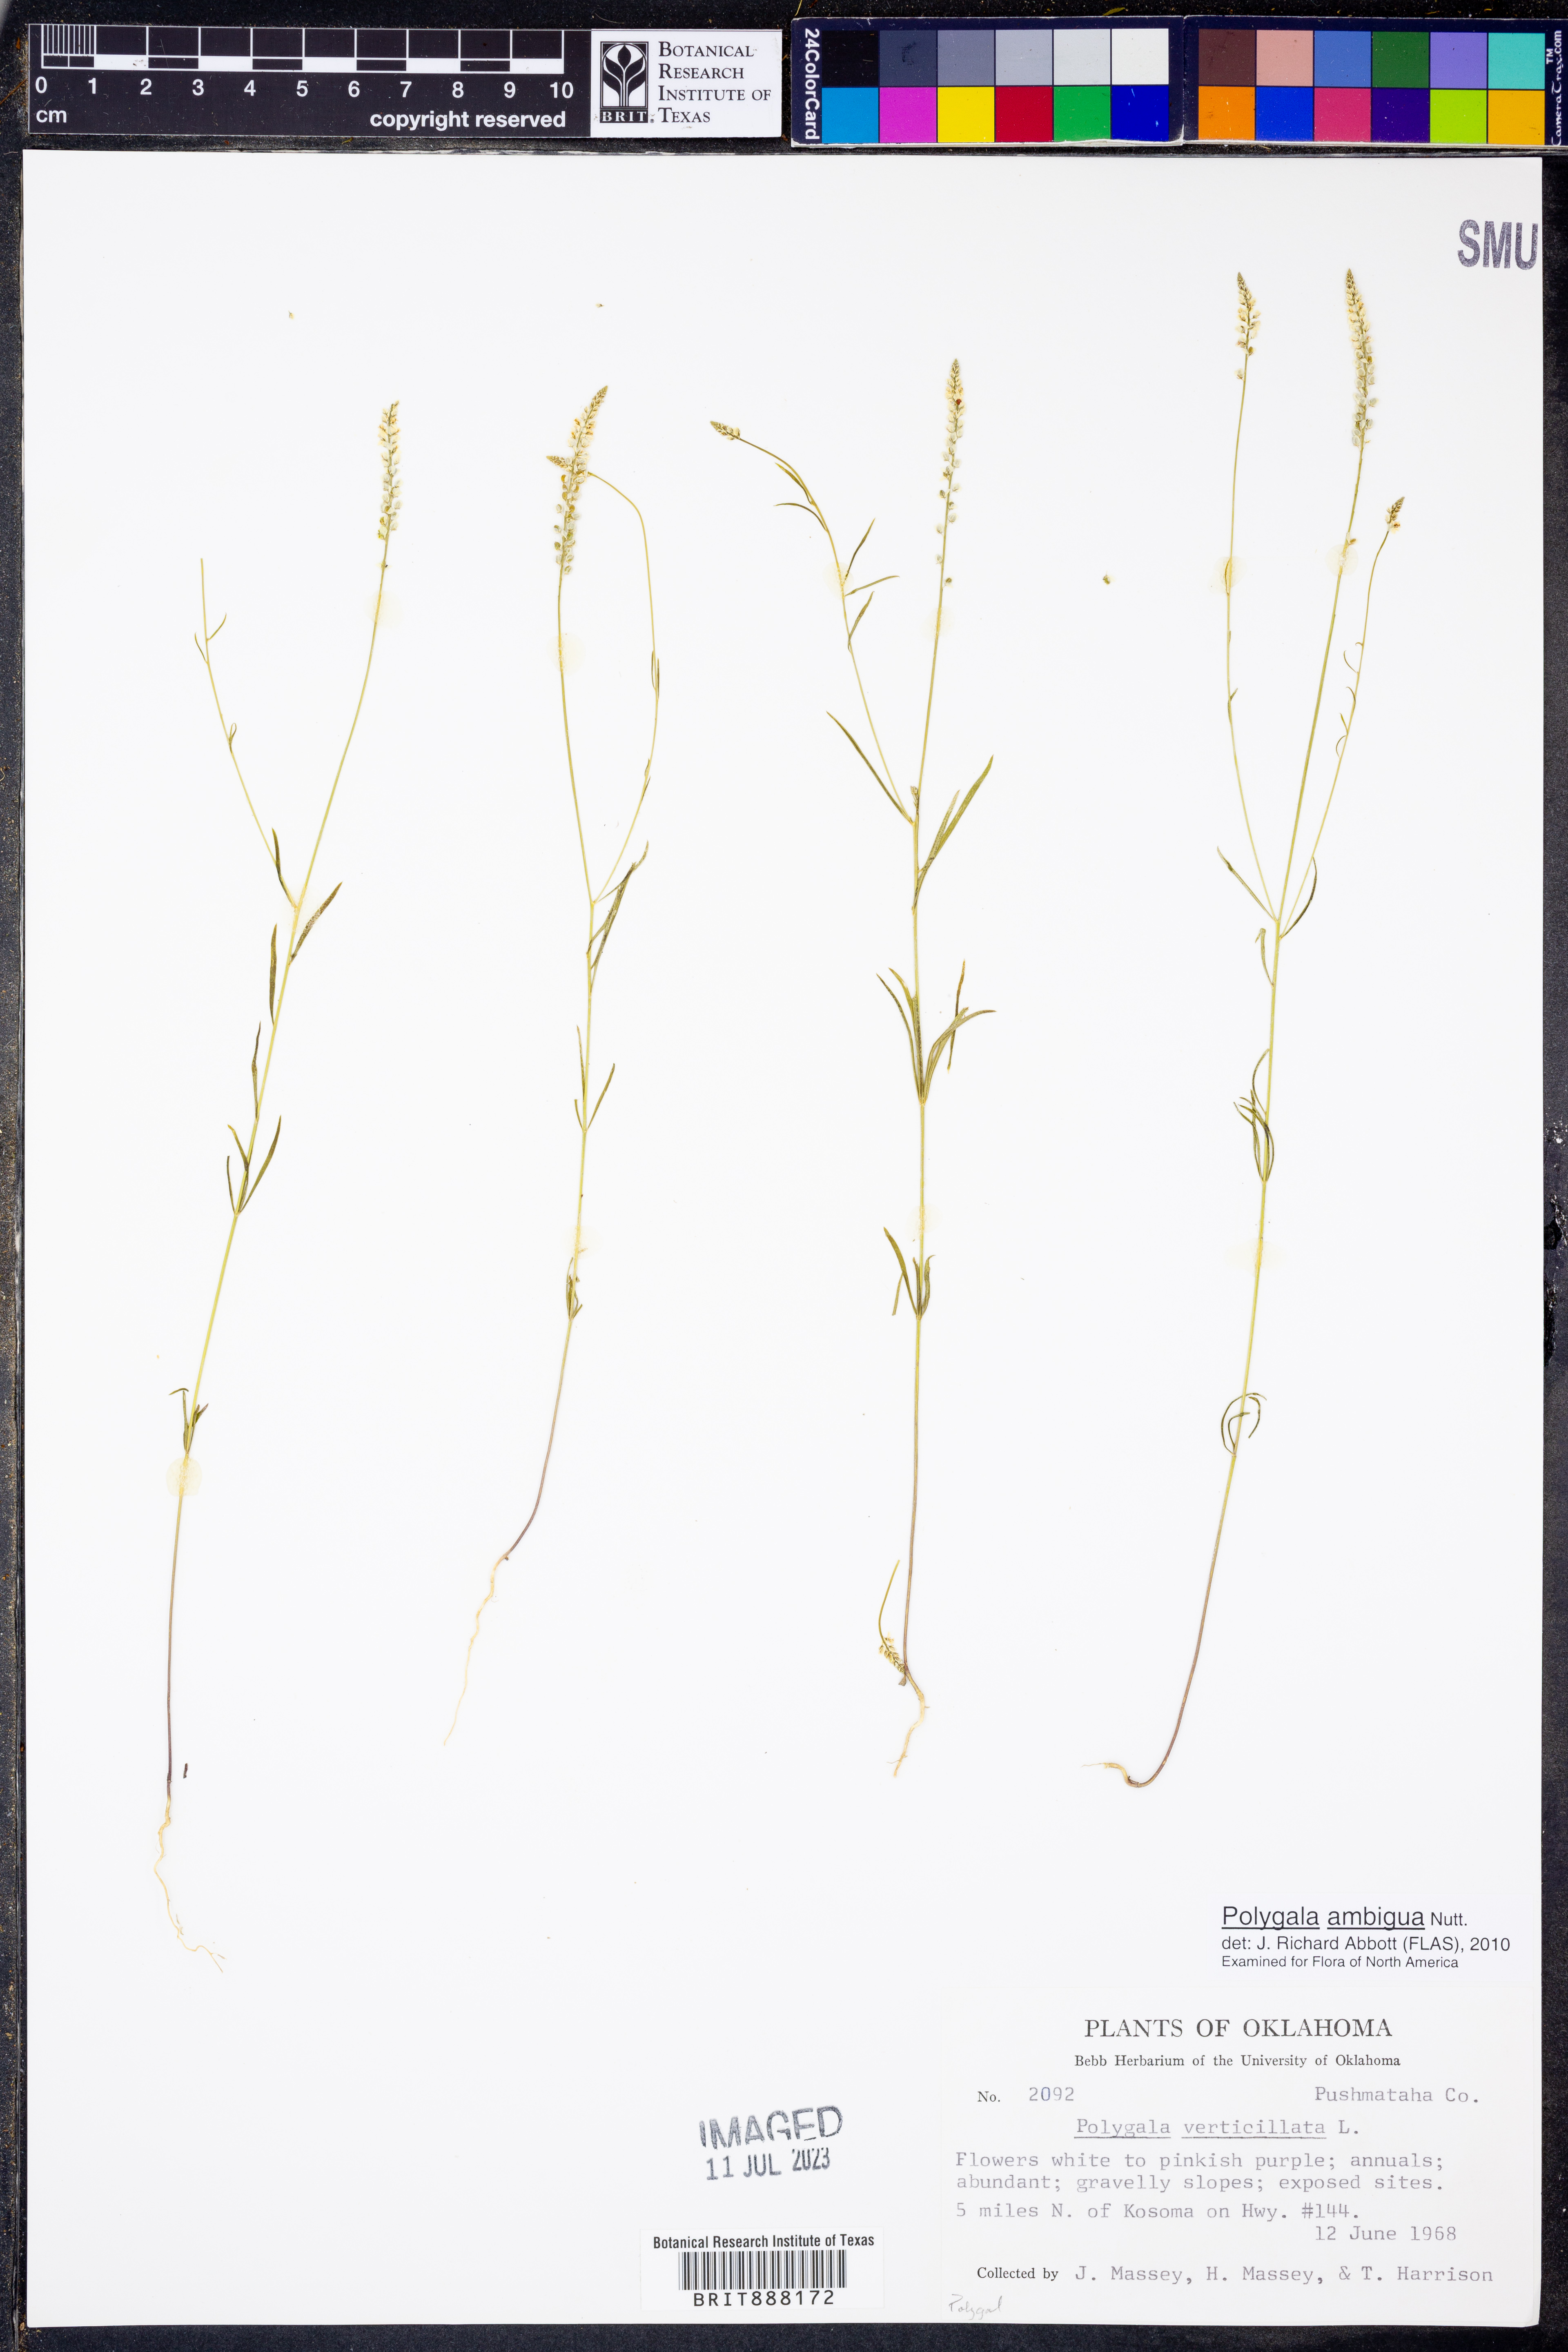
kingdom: Plantae
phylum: Tracheophyta
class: Magnoliopsida
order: Fabales
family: Polygalaceae
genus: Polygala
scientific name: Polygala ambigua
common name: Alternate milkwort
